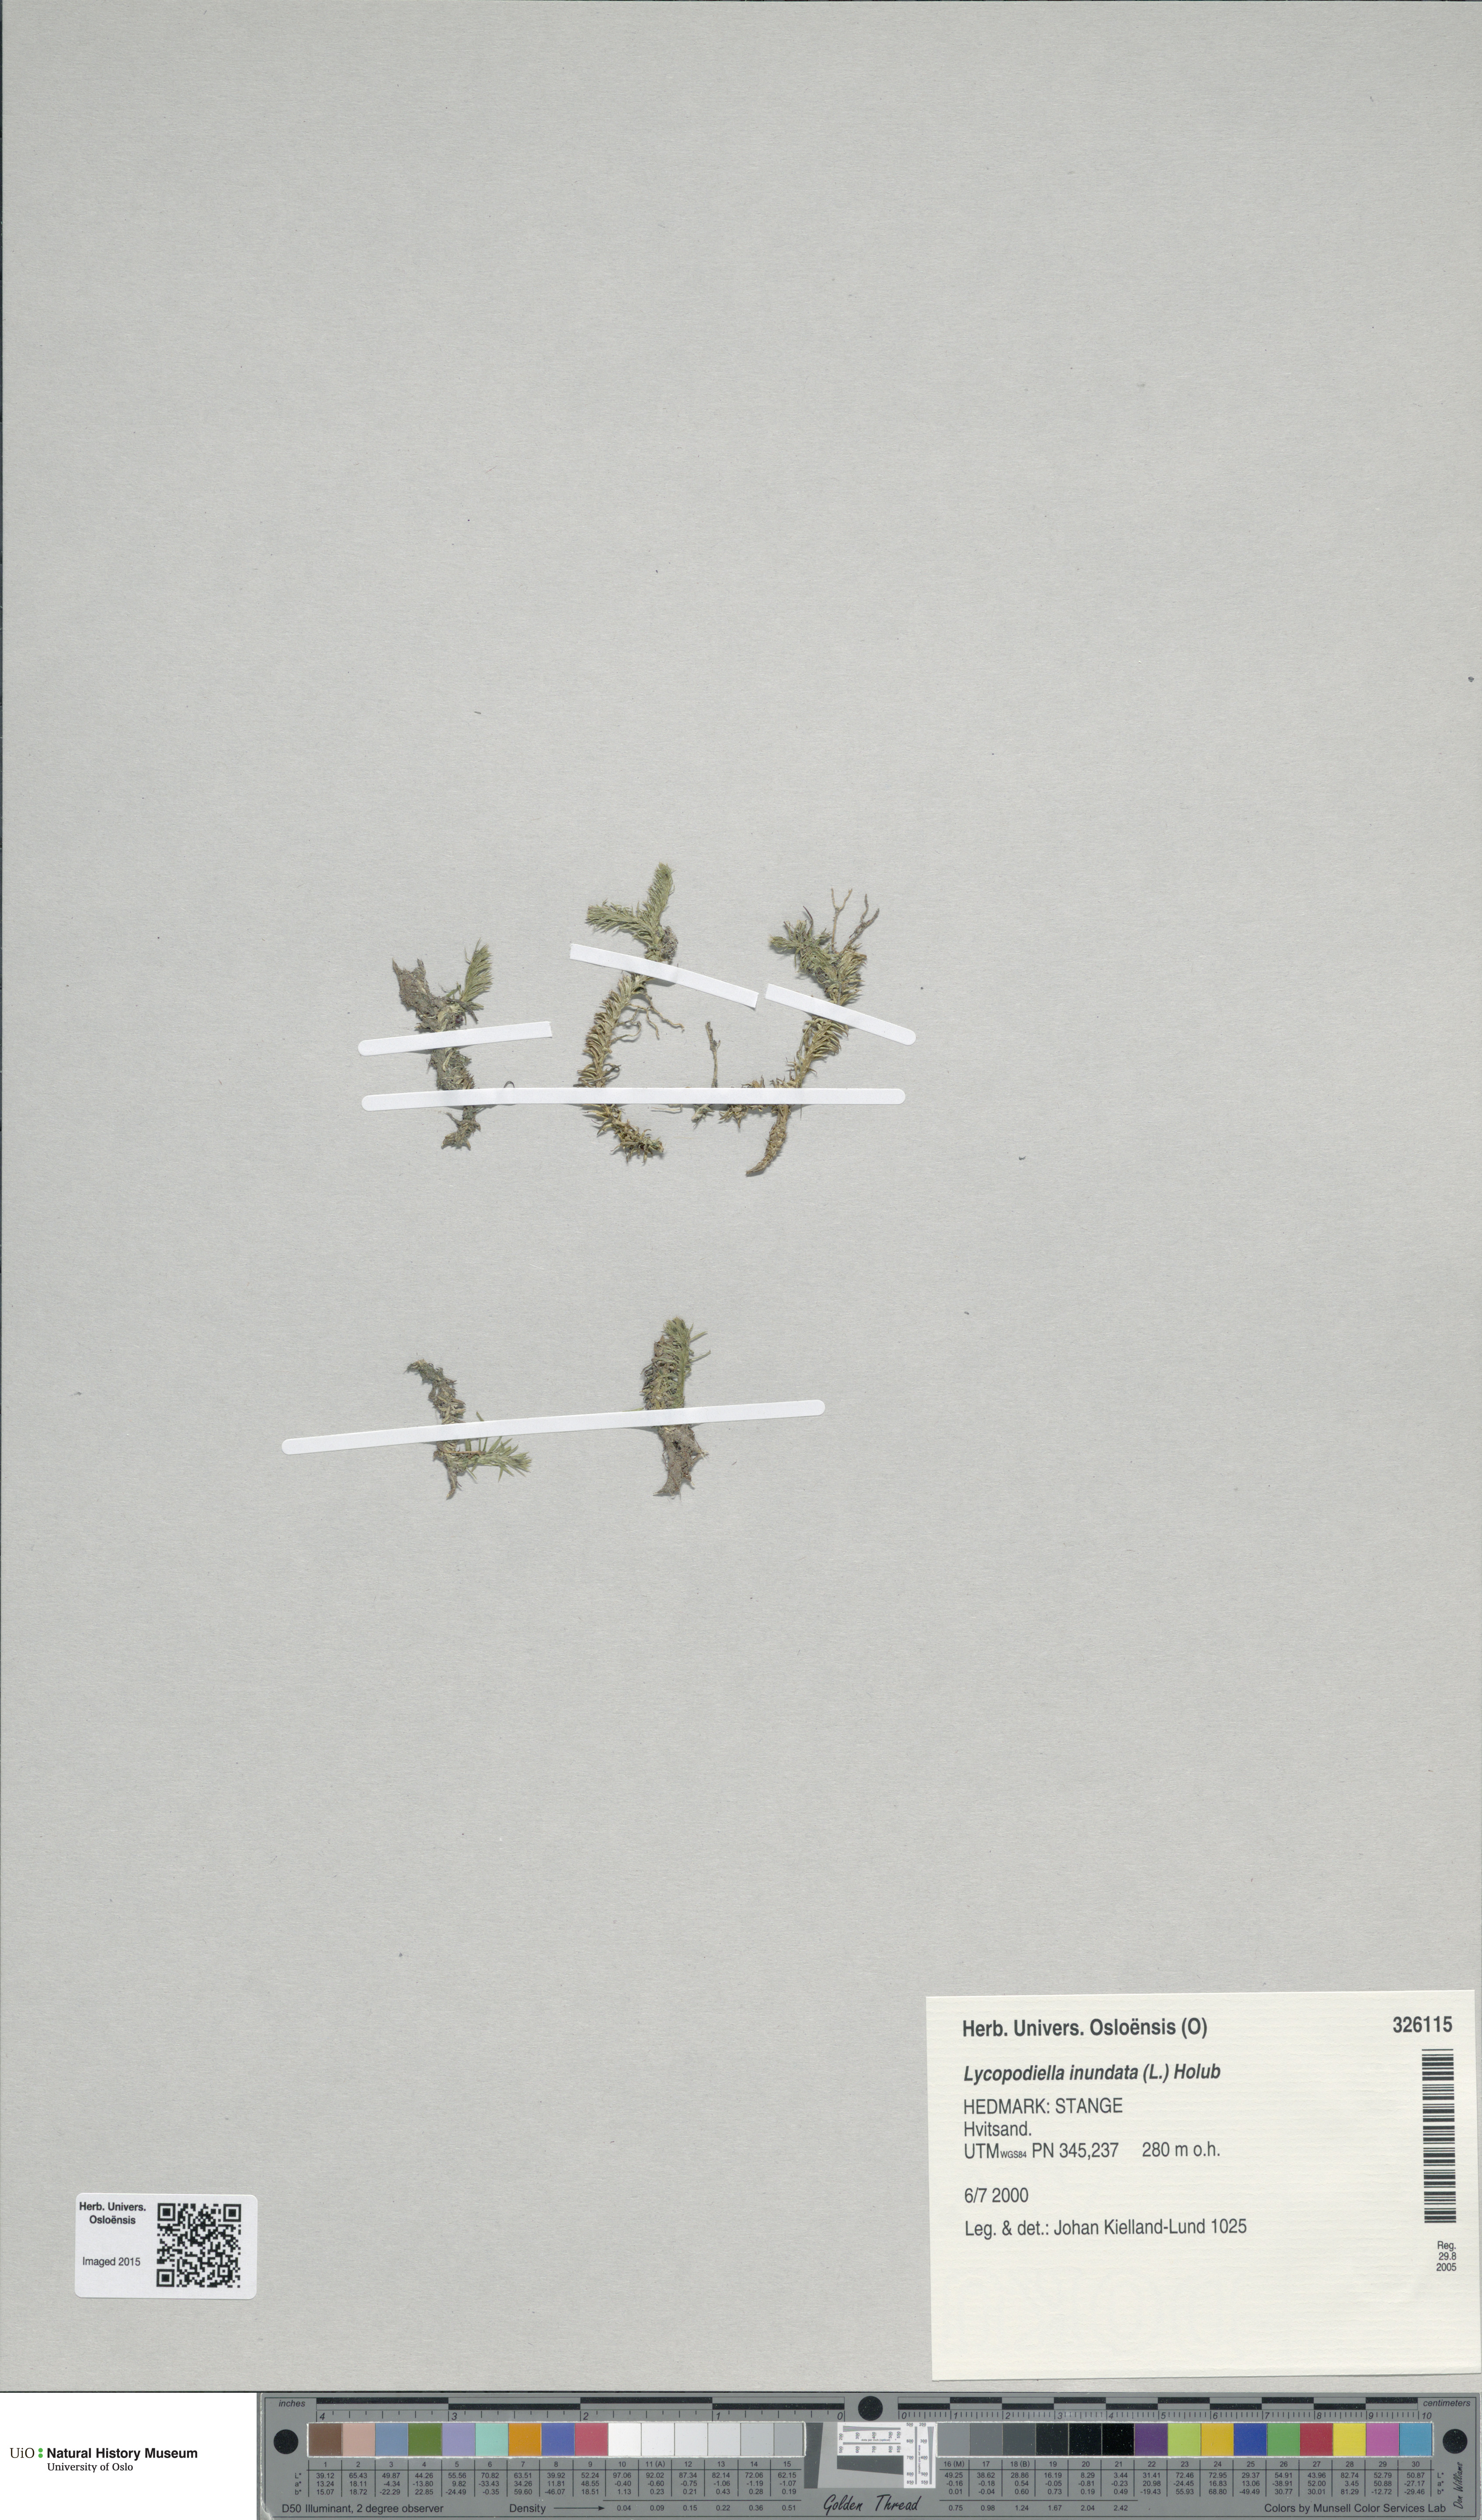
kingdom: Plantae
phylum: Tracheophyta
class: Lycopodiopsida
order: Lycopodiales
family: Lycopodiaceae
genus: Lycopodiella
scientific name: Lycopodiella inundata
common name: Marsh clubmoss
